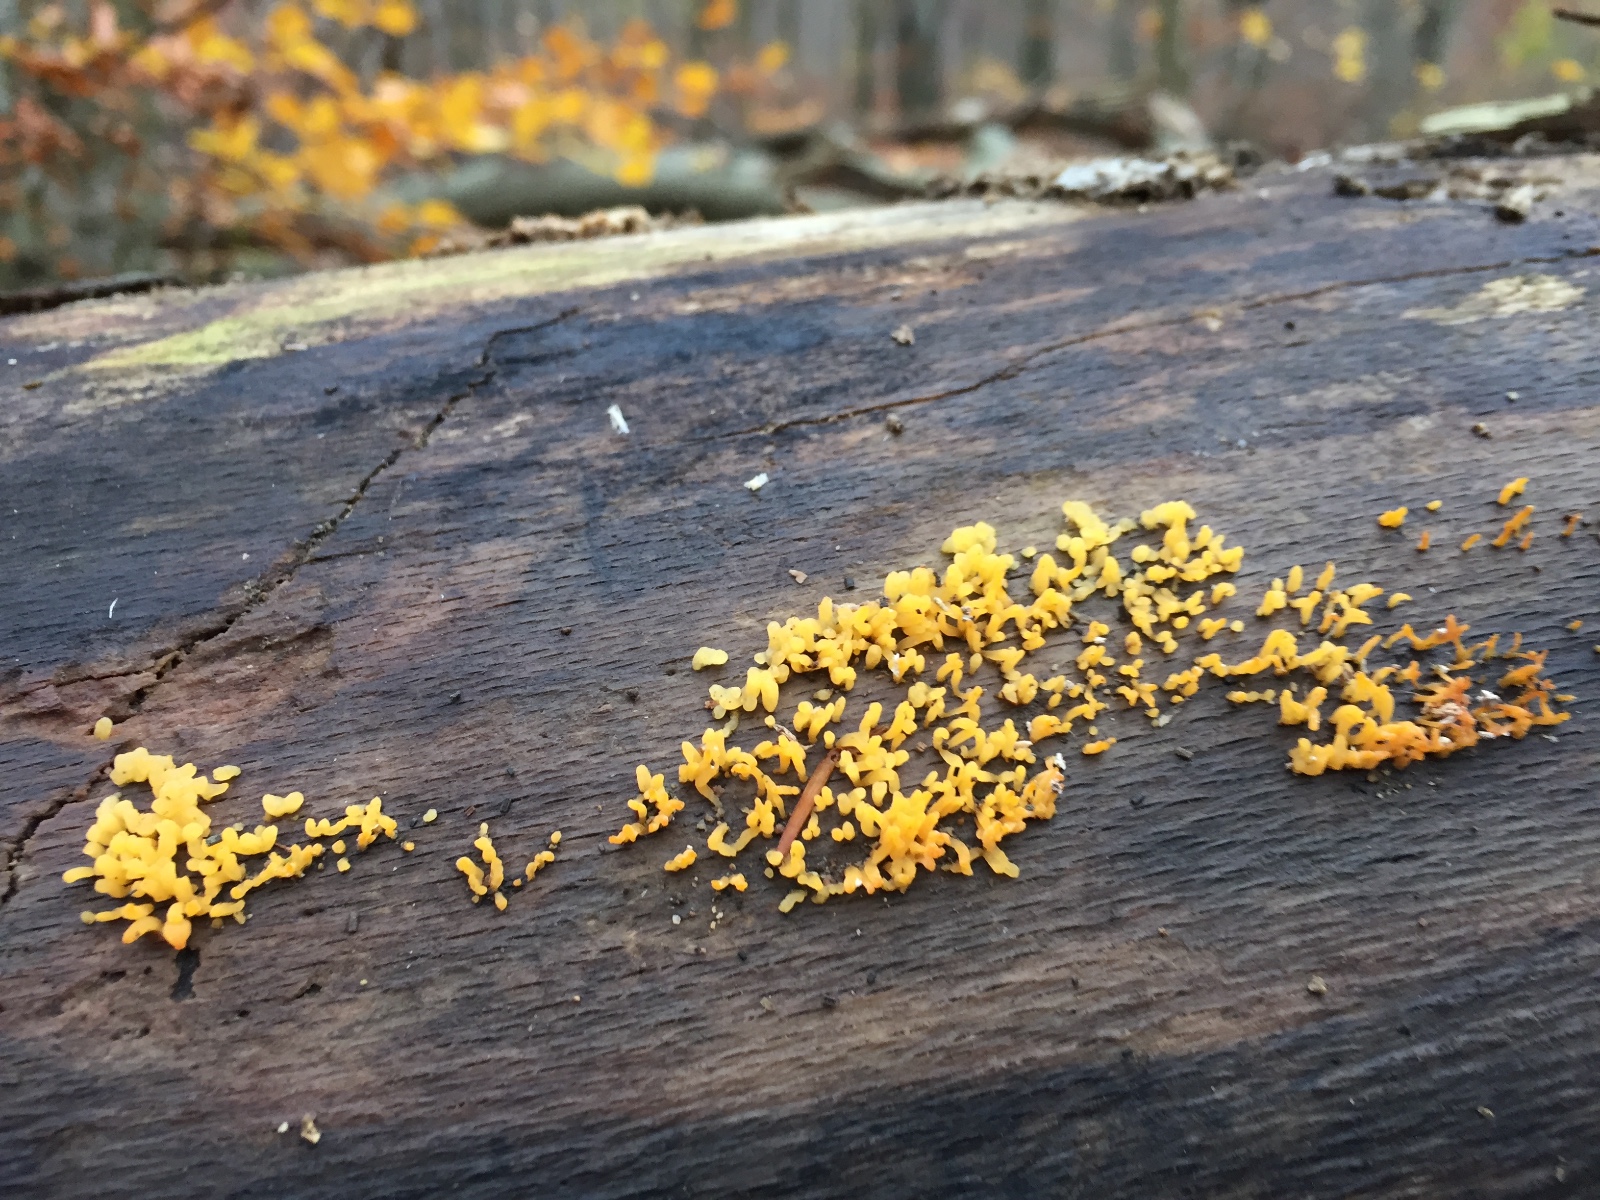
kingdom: Fungi
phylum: Basidiomycota
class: Dacrymycetes
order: Dacrymycetales
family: Dacrymycetaceae
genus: Calocera
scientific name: Calocera cornea
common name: liden guldgaffel
